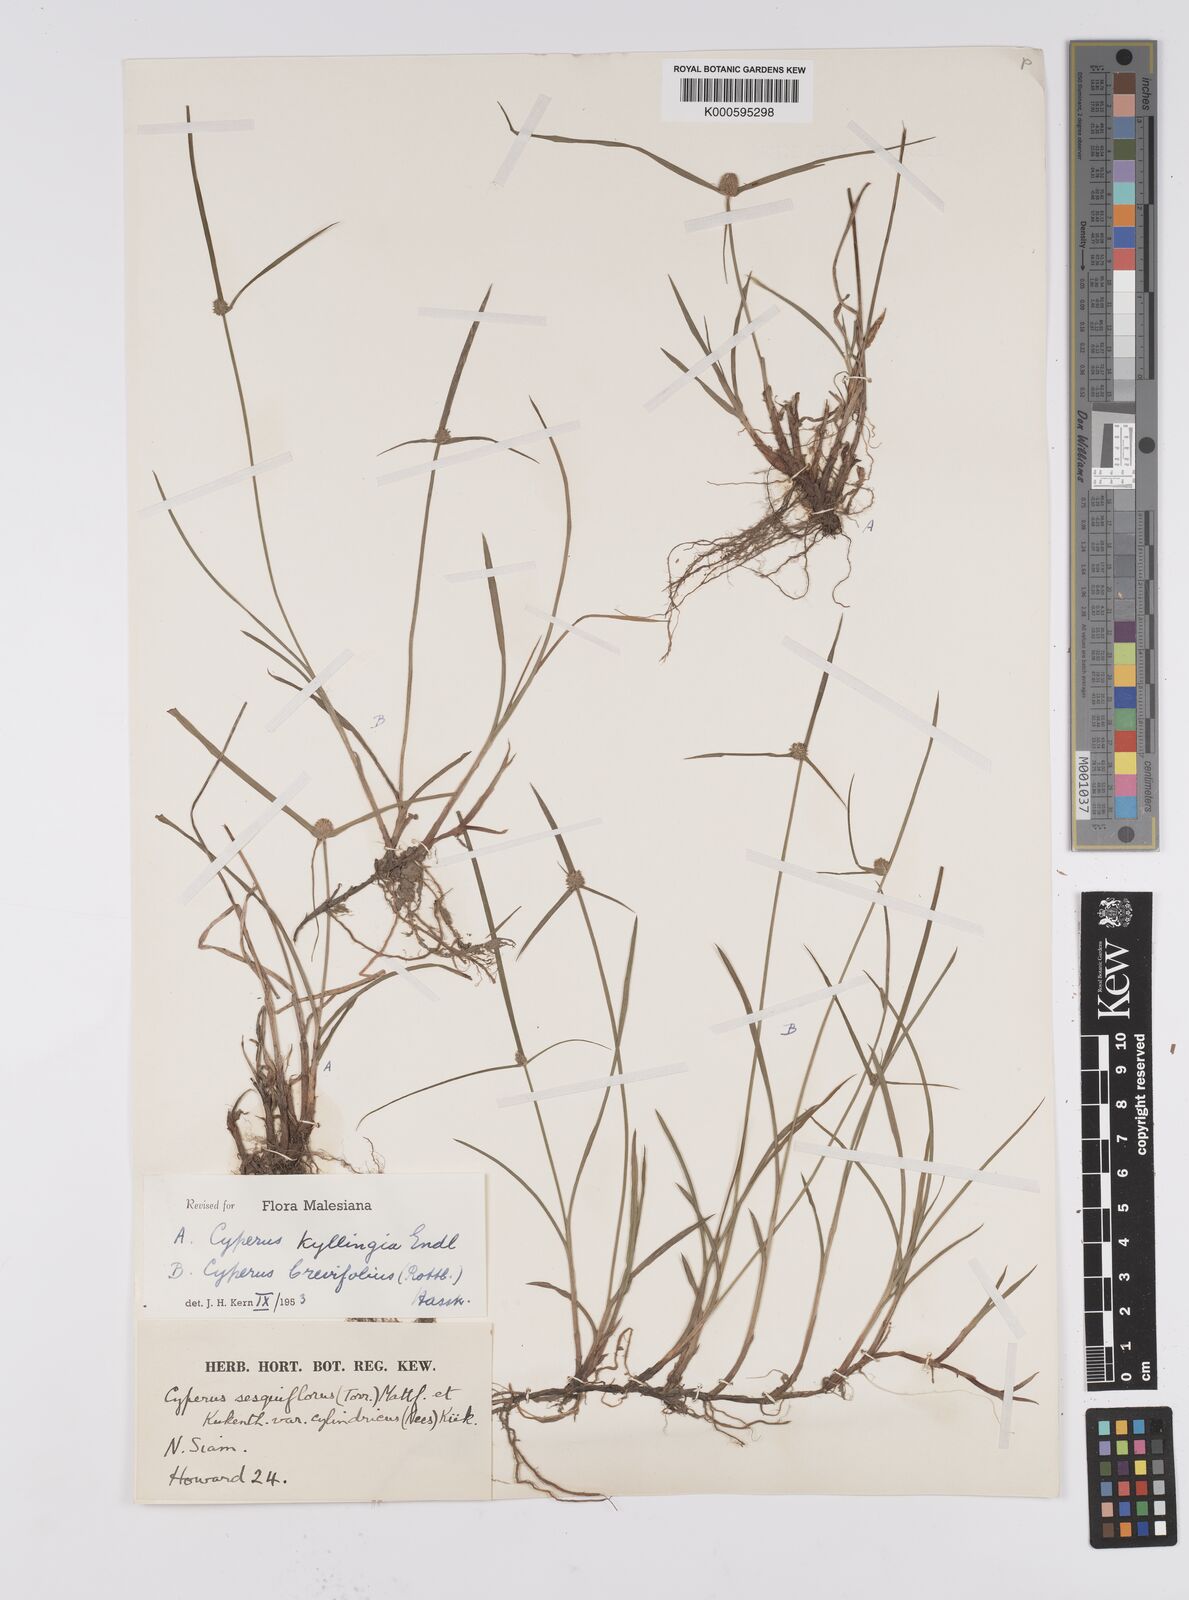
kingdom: Plantae
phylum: Tracheophyta
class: Liliopsida
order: Poales
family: Cyperaceae
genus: Cyperus
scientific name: Cyperus brevifolius
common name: Globe kyllinga
